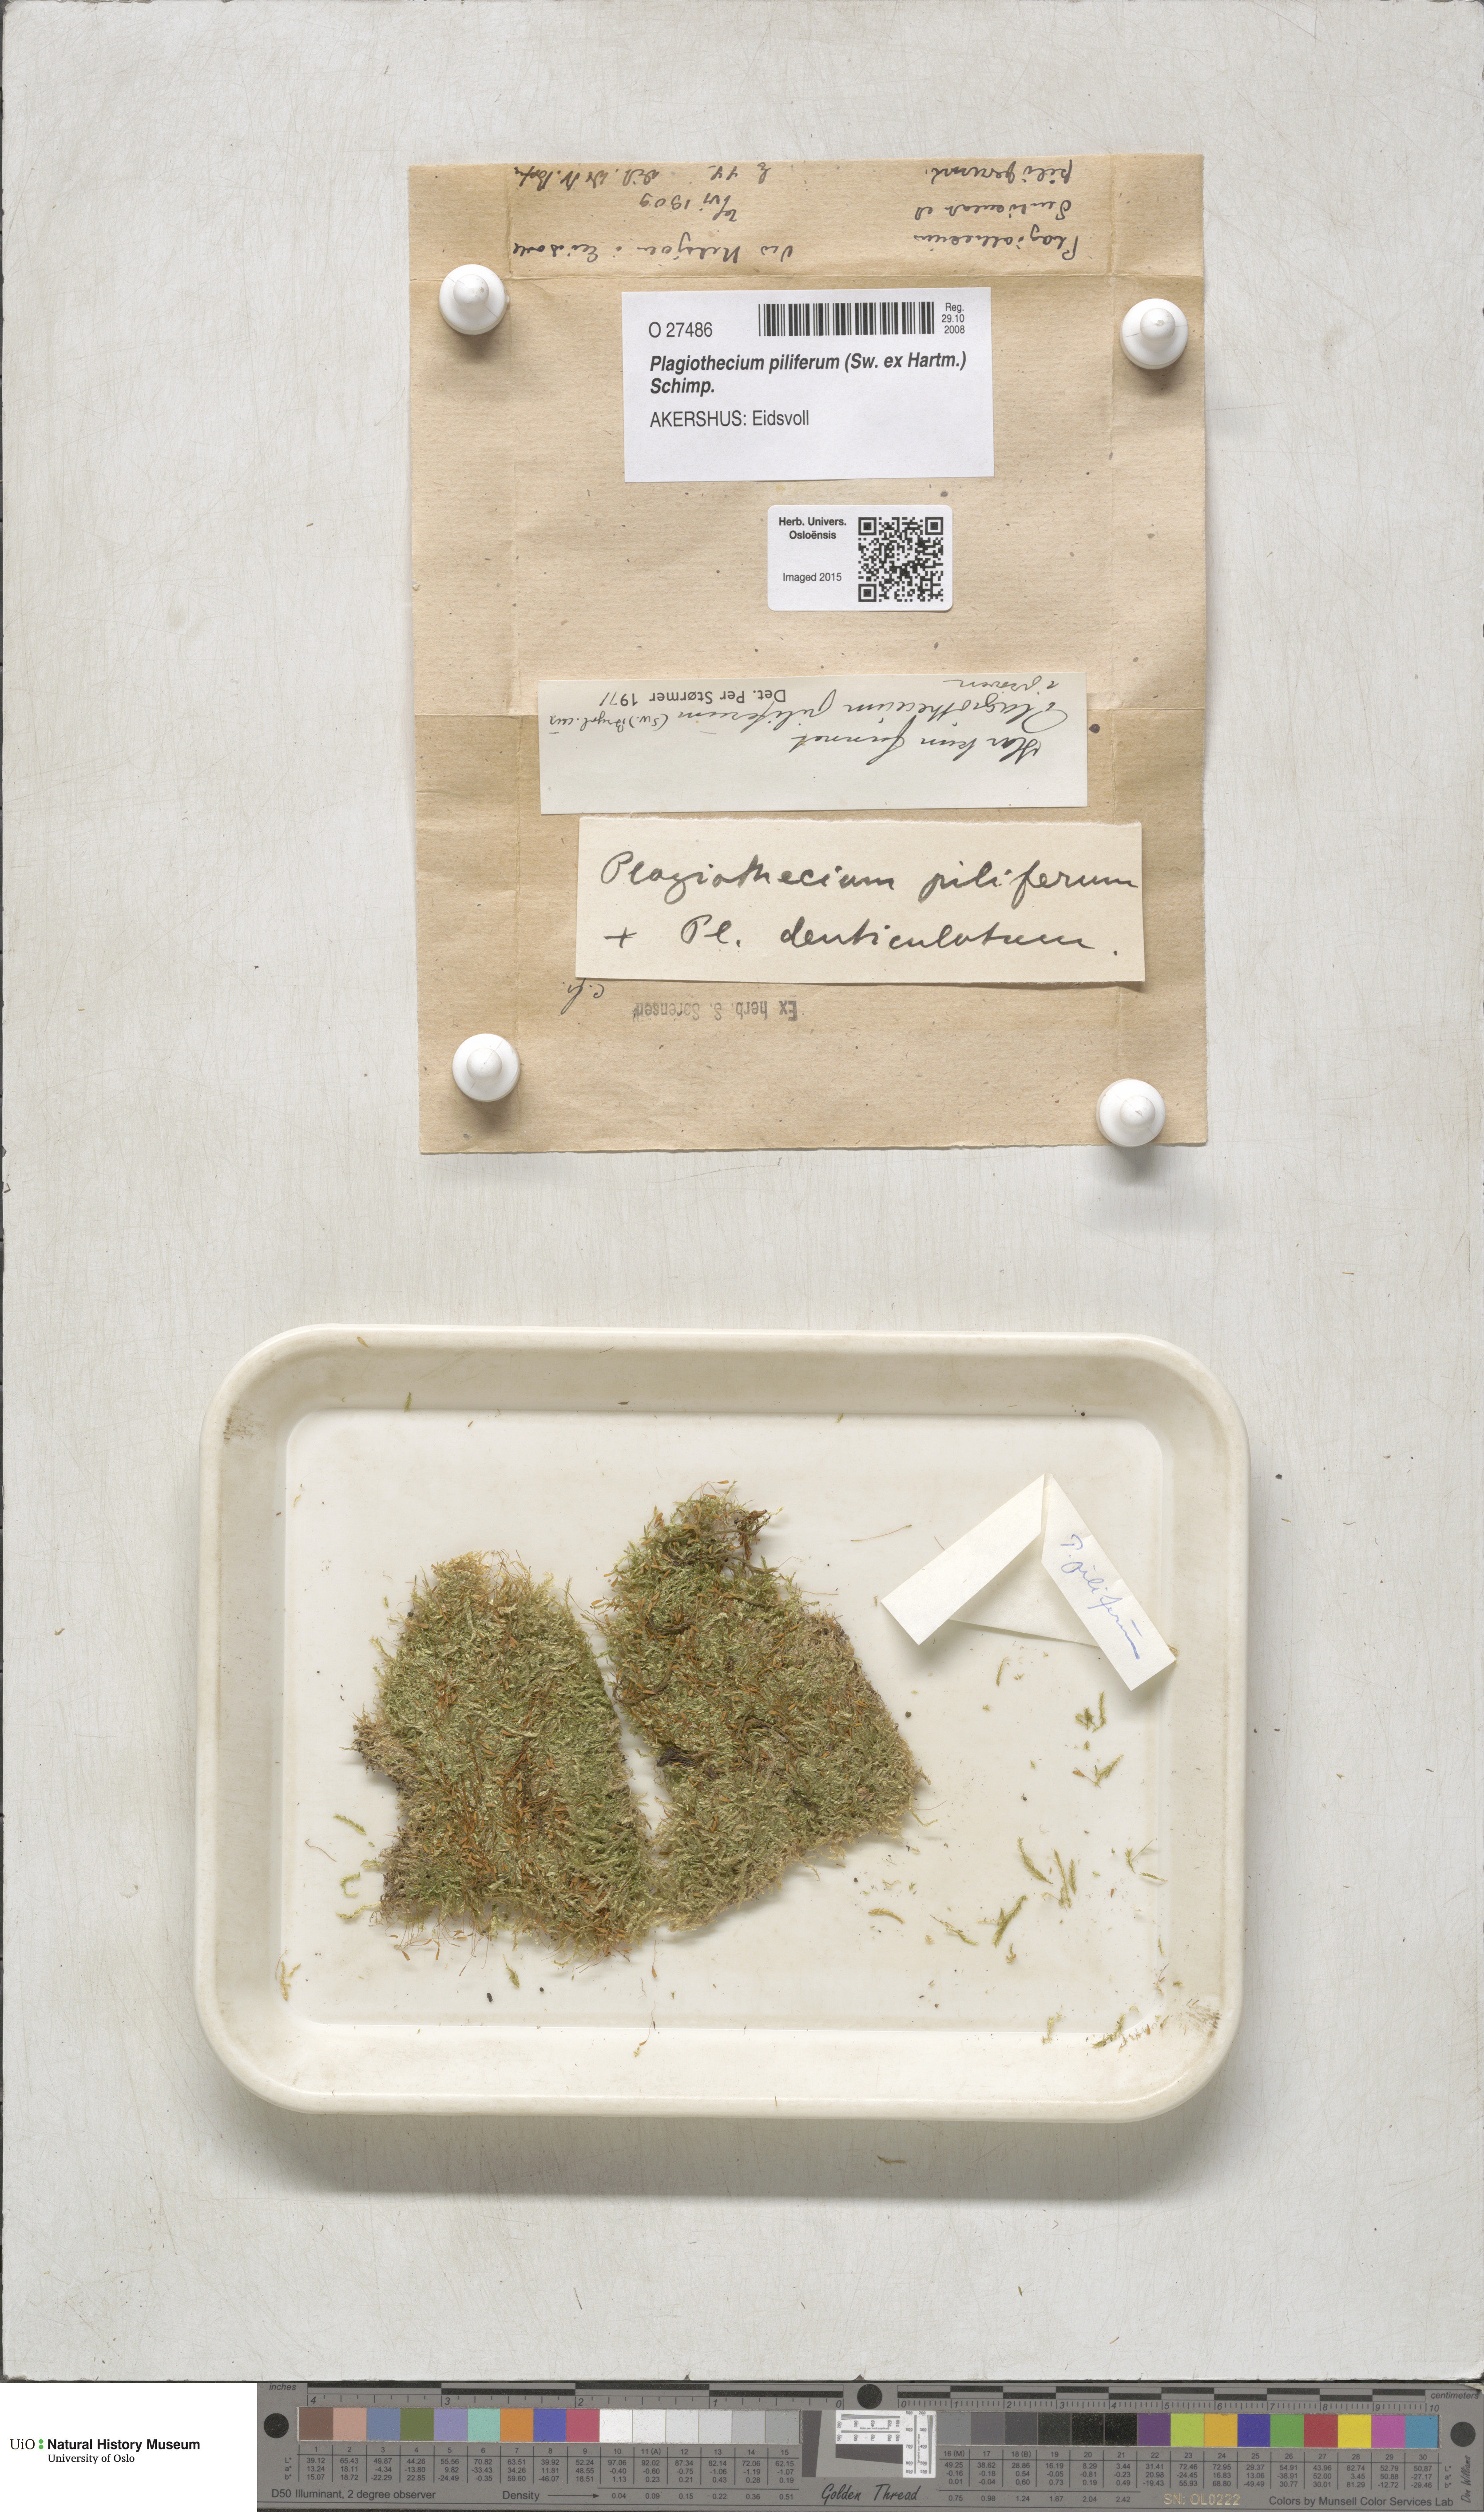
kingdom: Plantae
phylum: Bryophyta
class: Bryopsida
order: Hypnales
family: Plagiotheciaceae
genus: Rectithecium
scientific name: Rectithecium piliferum
